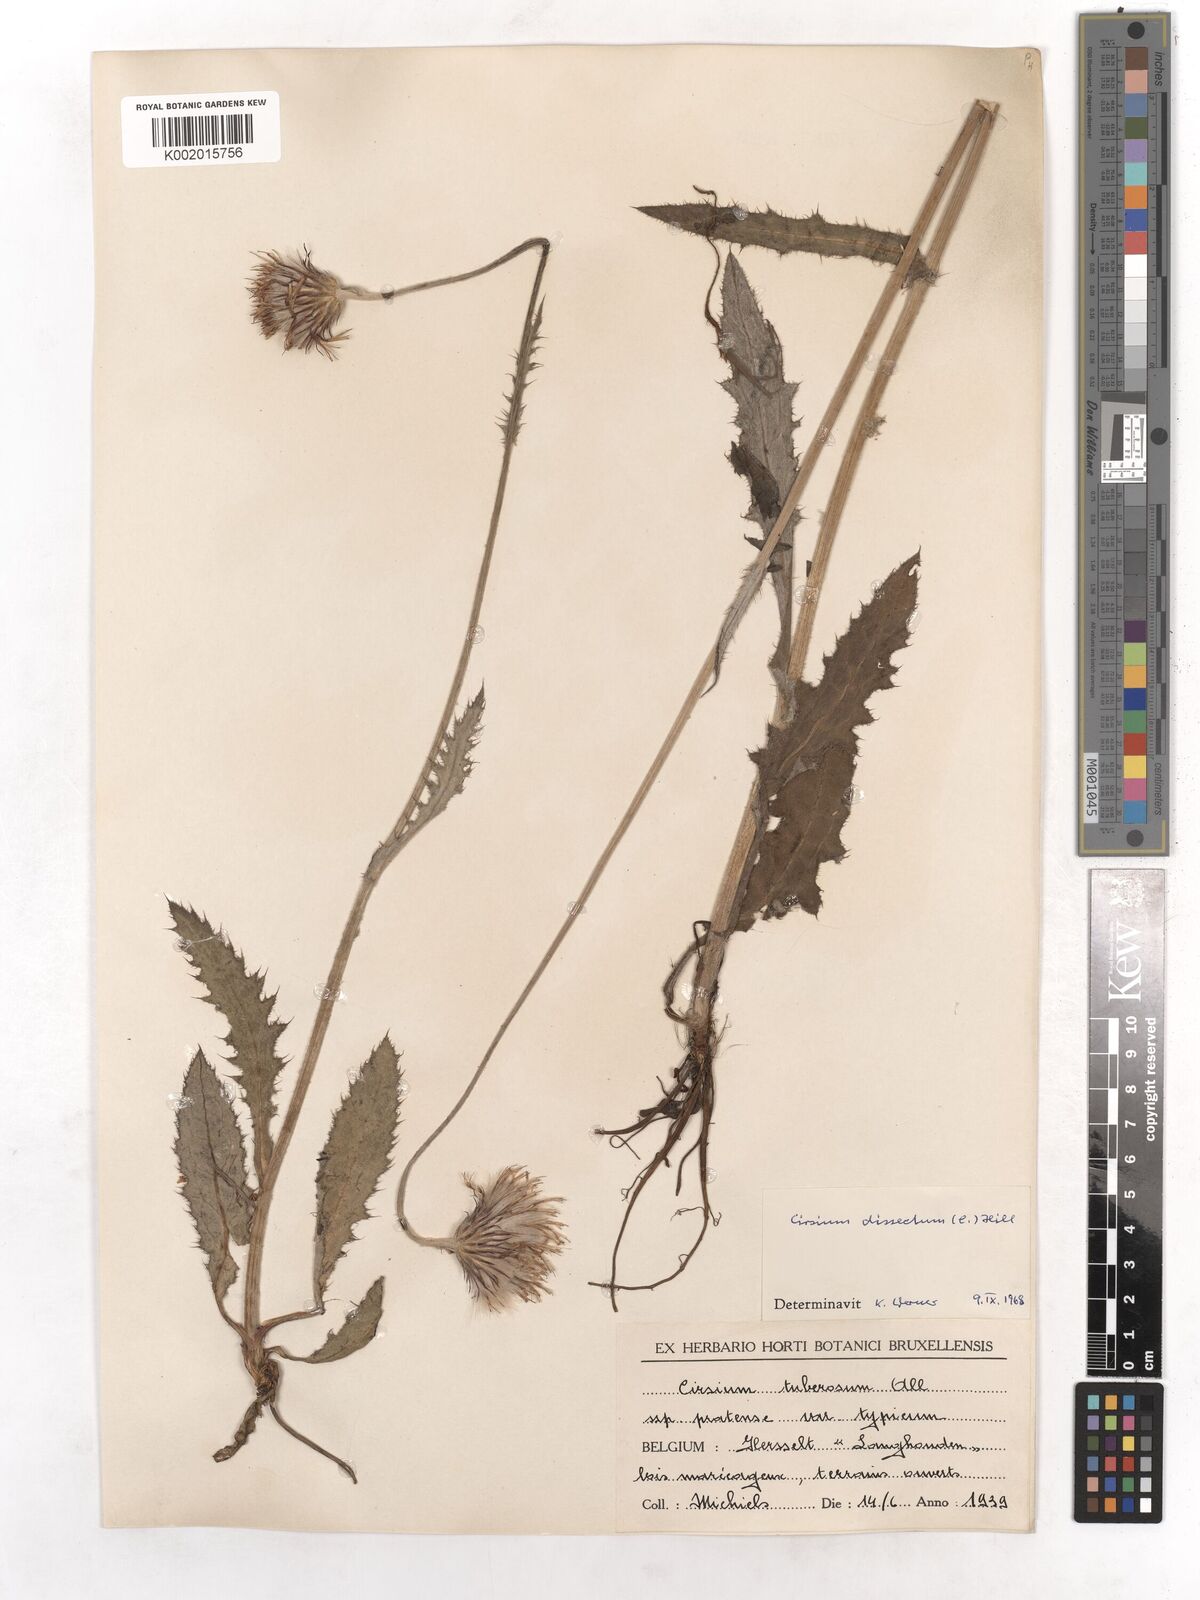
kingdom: Plantae
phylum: Tracheophyta
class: Magnoliopsida
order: Asterales
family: Asteraceae
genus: Cirsium
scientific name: Cirsium dissectum
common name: Meadow thistle
